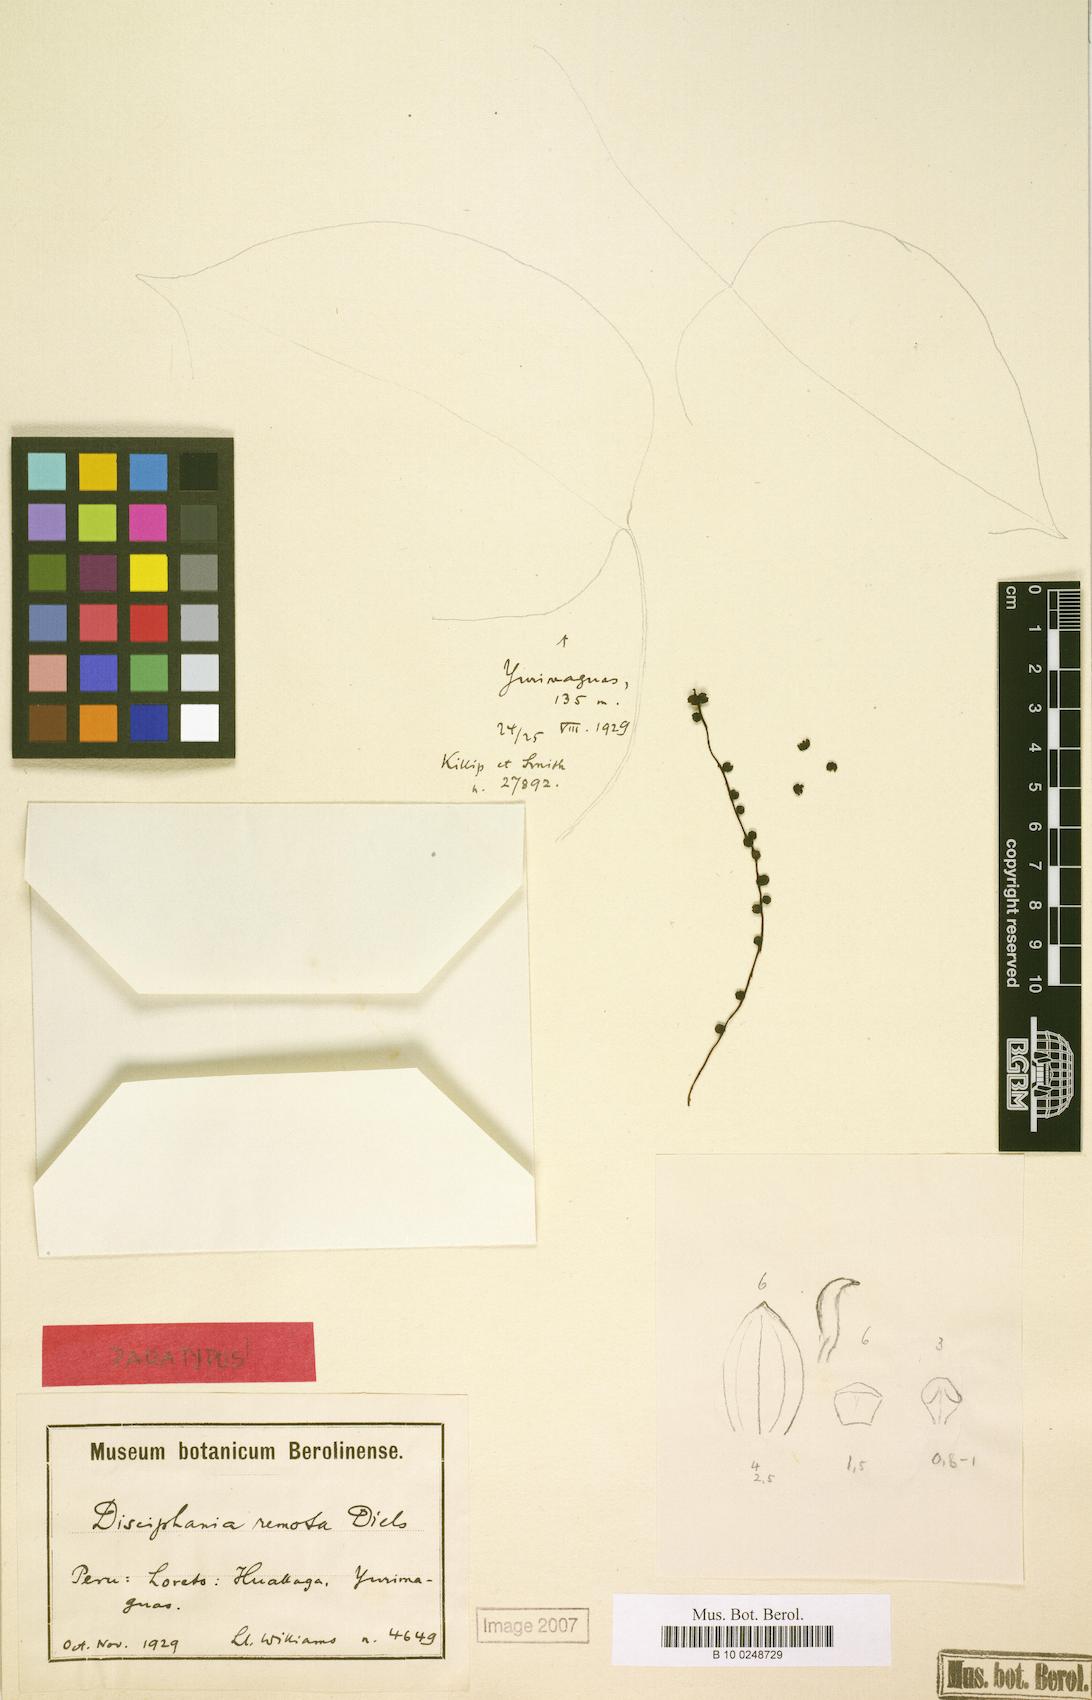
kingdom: Plantae
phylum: Tracheophyta
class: Magnoliopsida
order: Ranunculales
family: Menispermaceae
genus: Disciphania
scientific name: Disciphania remota
